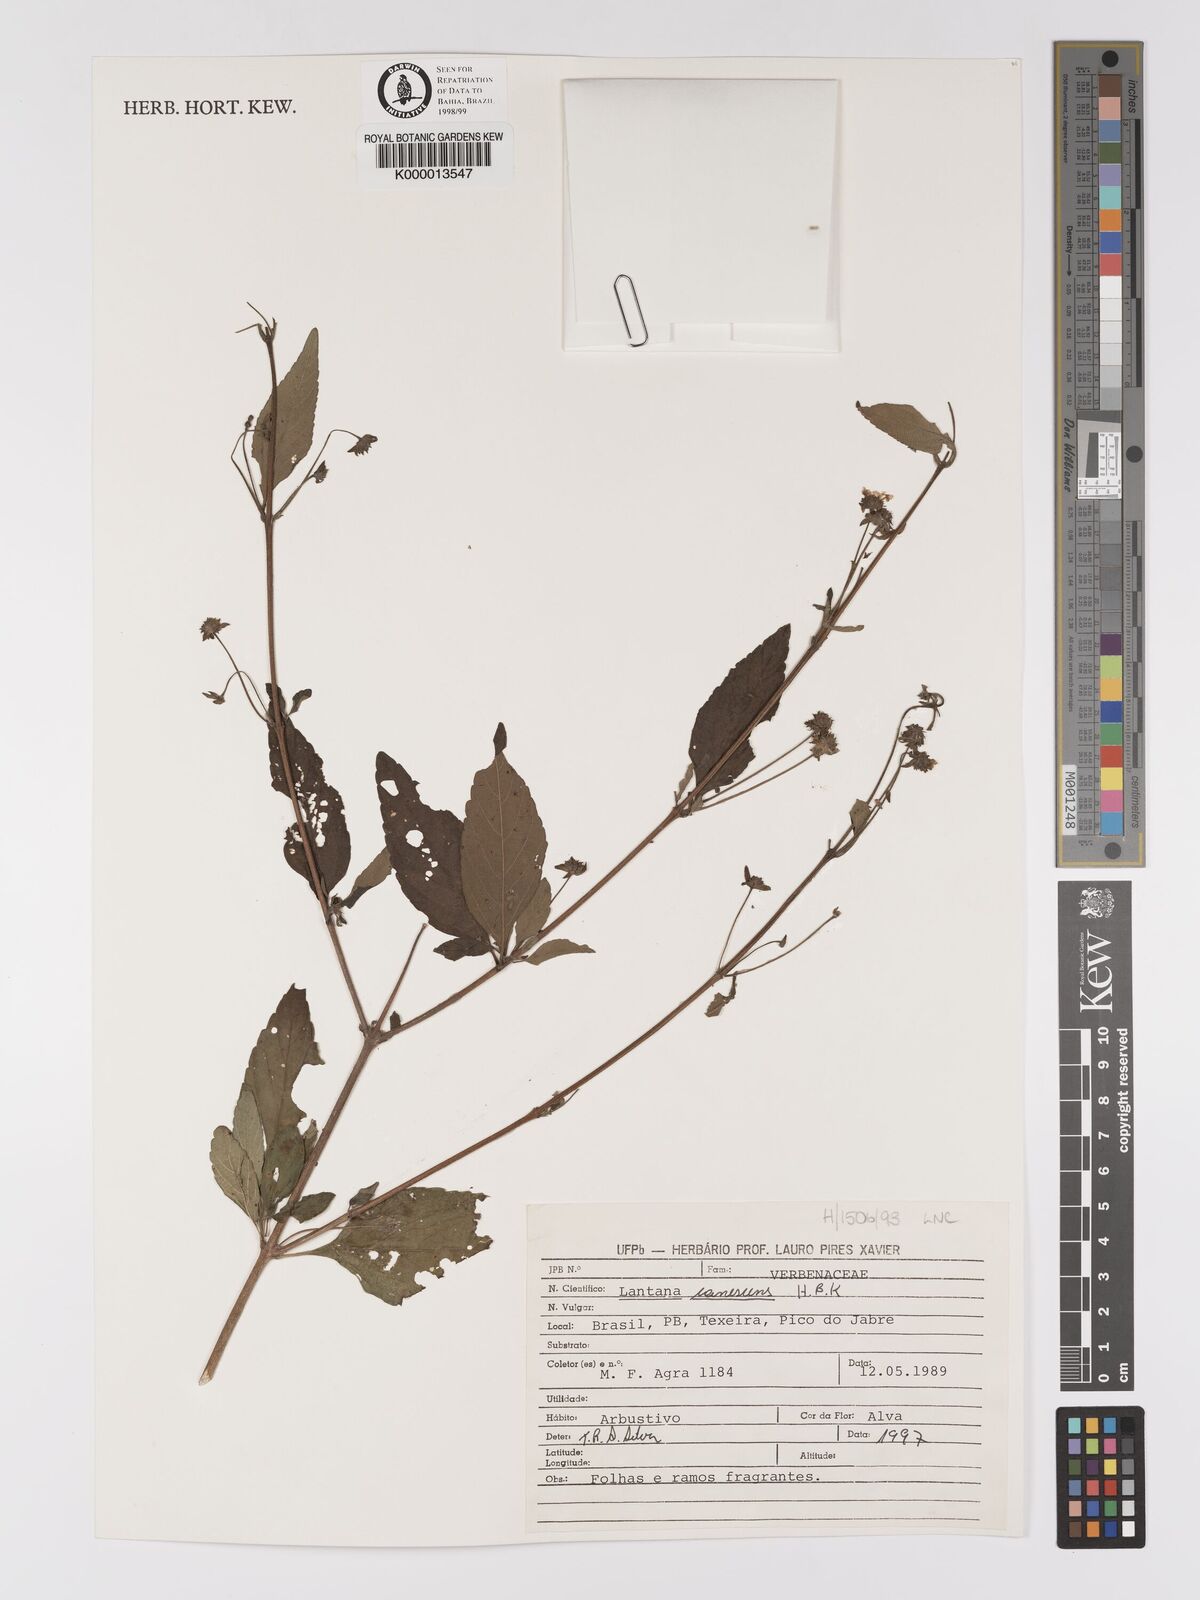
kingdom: Plantae
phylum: Tracheophyta
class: Magnoliopsida
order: Lamiales
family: Verbenaceae
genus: Lantana
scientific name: Lantana canescens
